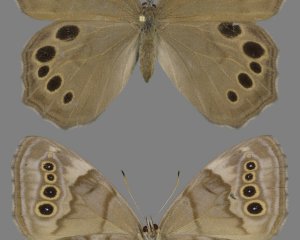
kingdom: Animalia
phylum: Arthropoda
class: Insecta
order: Lepidoptera
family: Nymphalidae
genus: Lethe
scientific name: Lethe anthedon
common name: Northern Pearly-Eye
